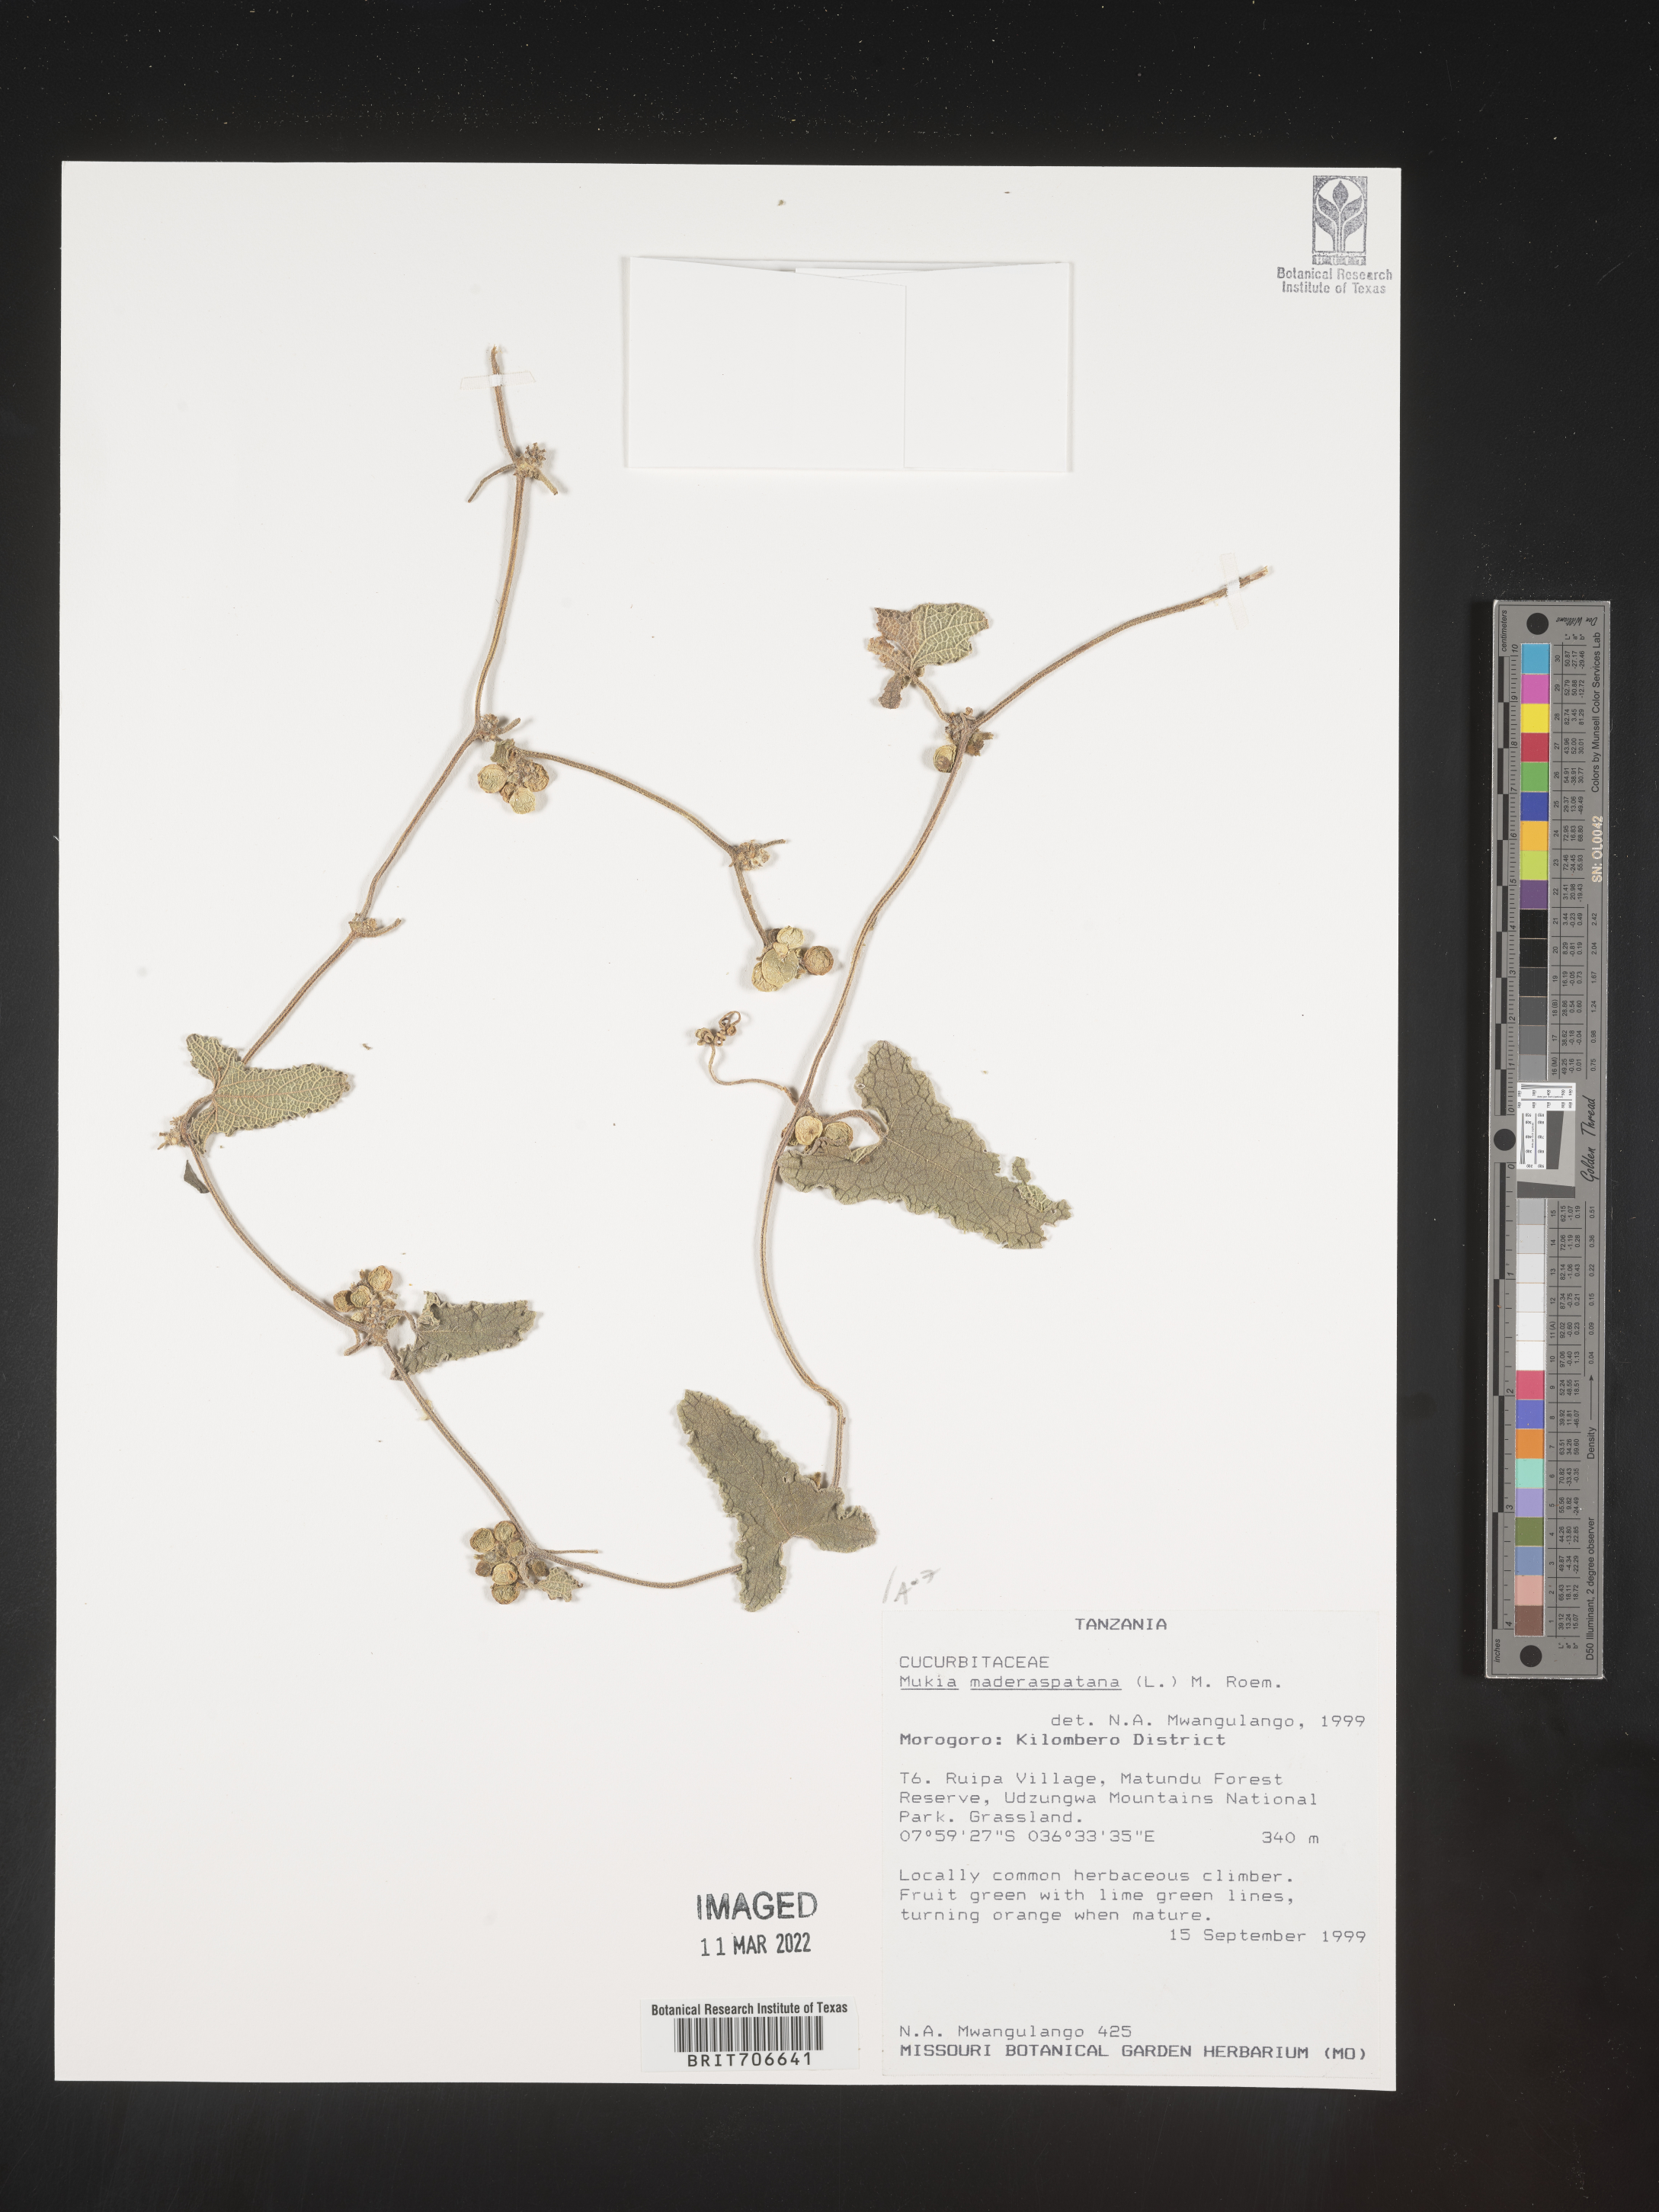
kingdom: Animalia
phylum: Arthropoda
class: Insecta
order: Lepidoptera
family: Crambidae
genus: Mukia
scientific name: Mukia
